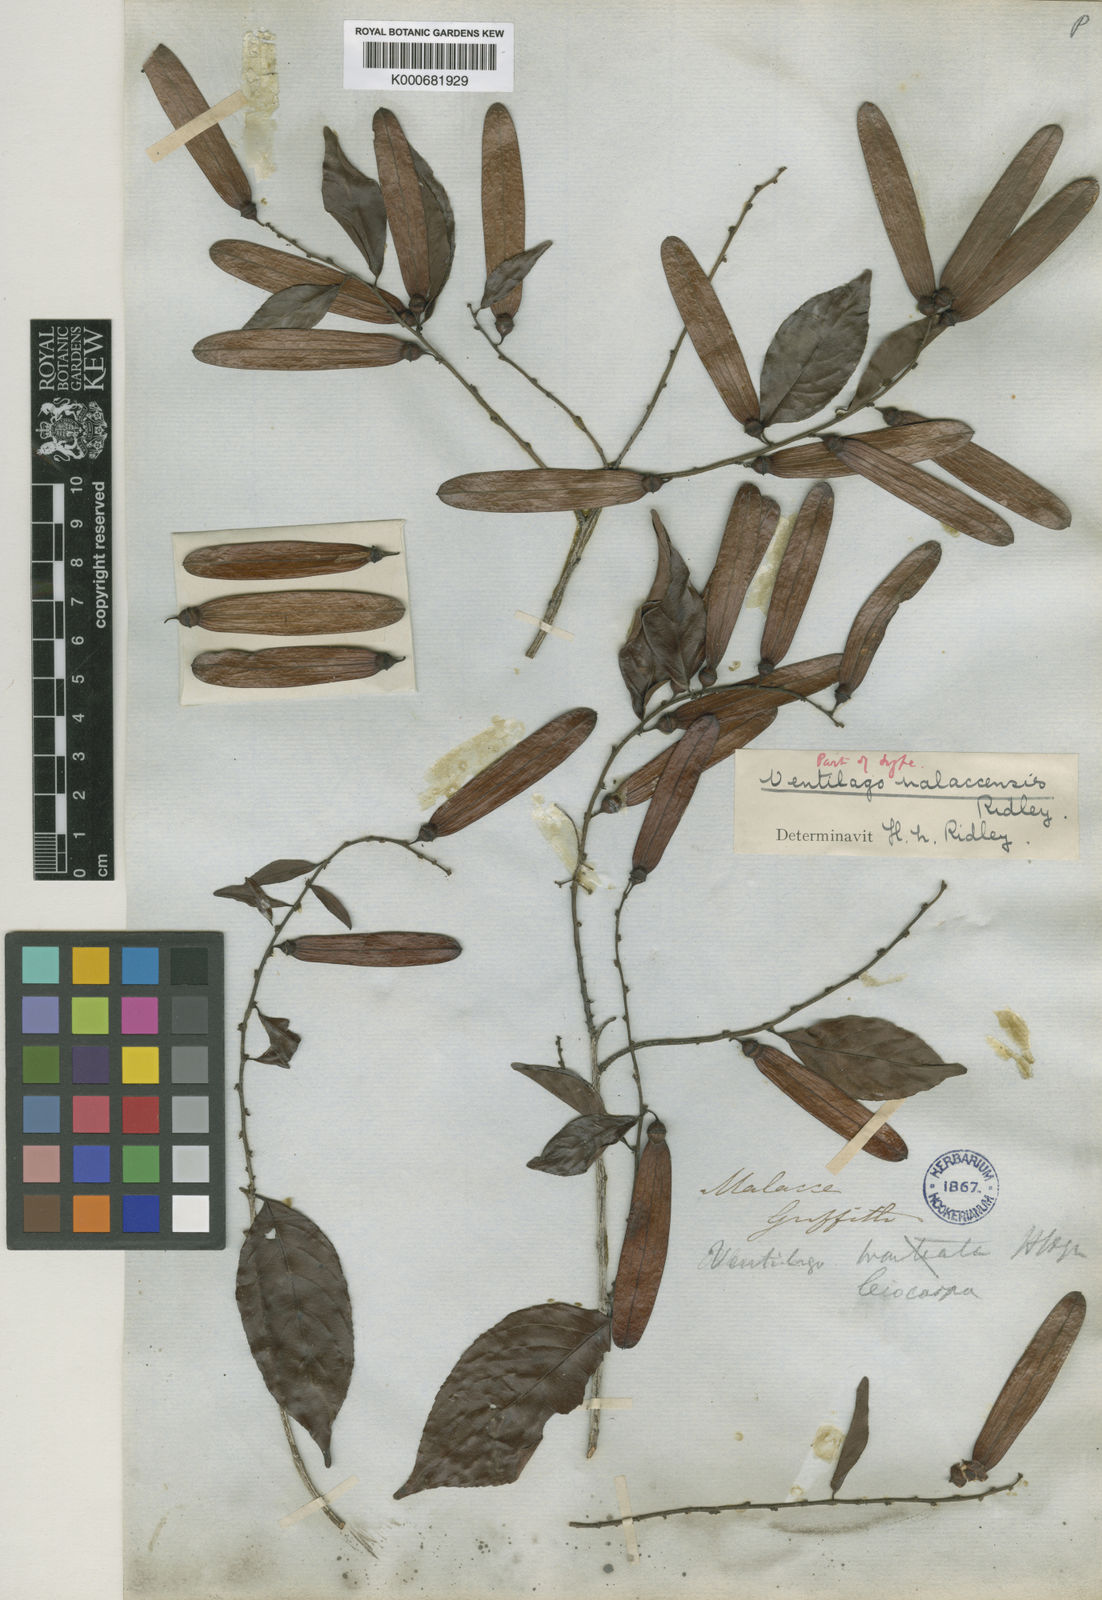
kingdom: Plantae
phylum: Tracheophyta
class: Magnoliopsida
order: Rosales
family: Rhamnaceae
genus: Ventilago
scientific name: Ventilago malaccensis
